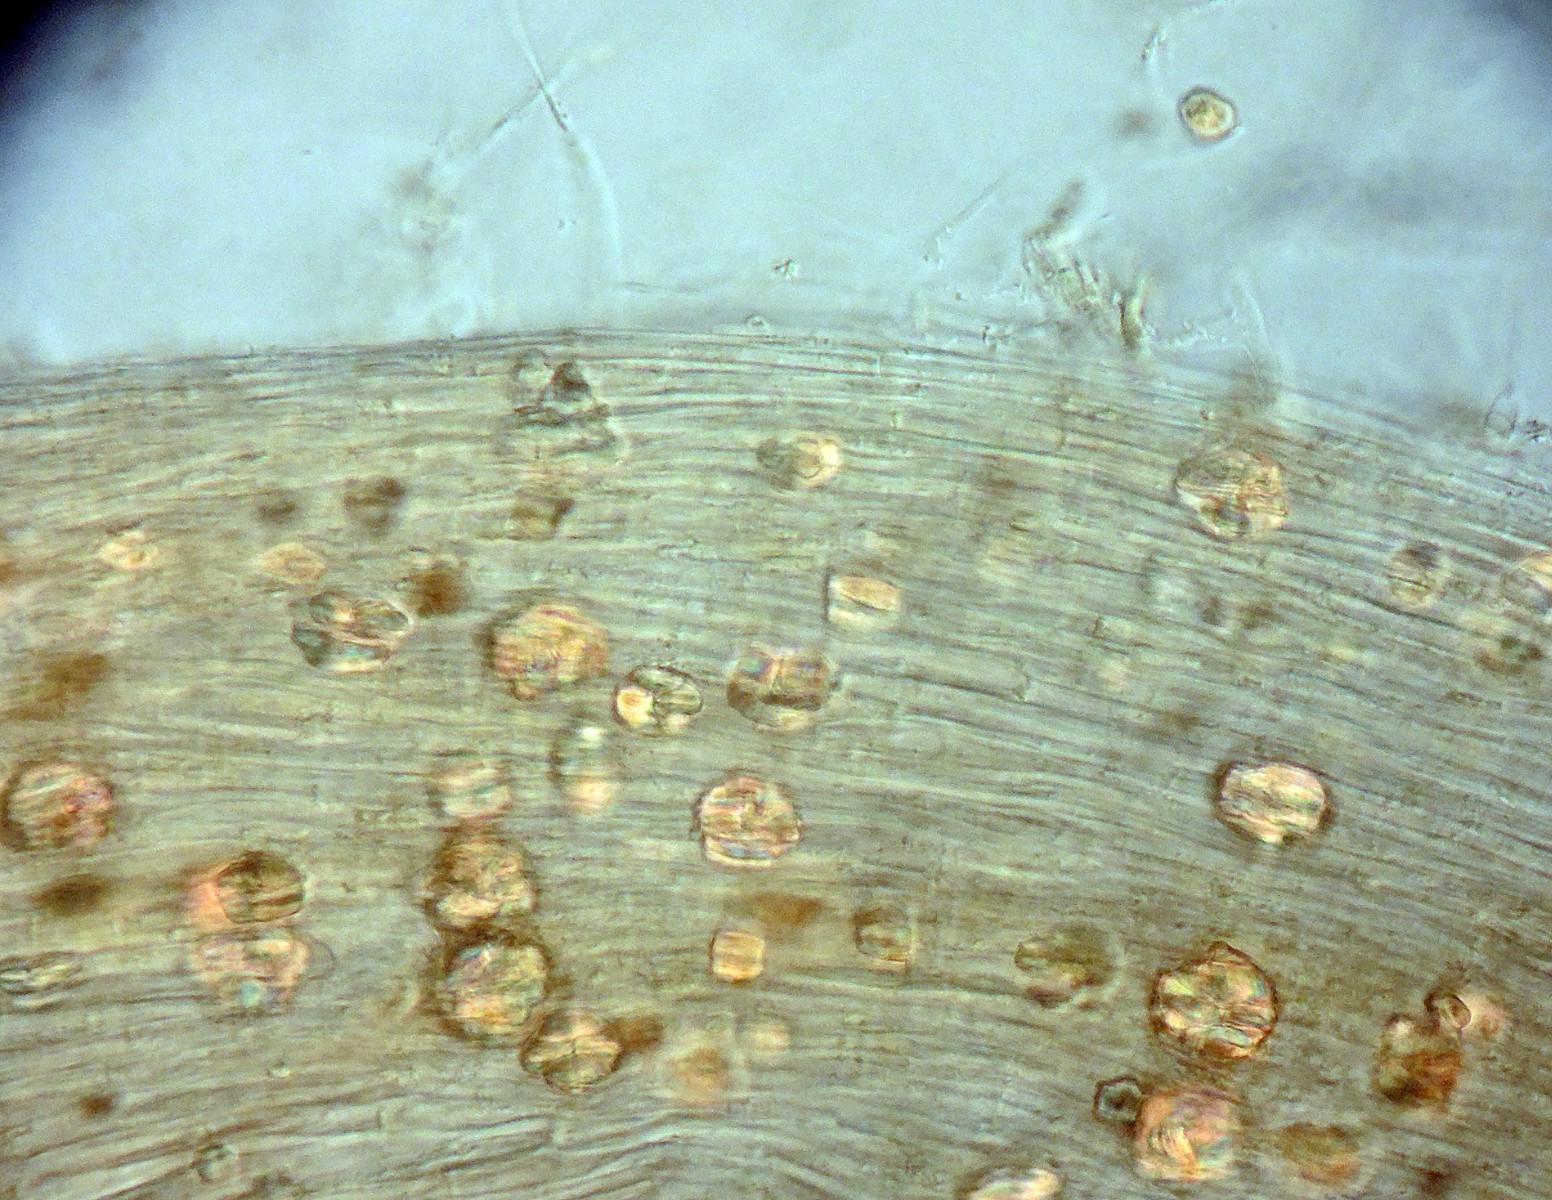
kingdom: Fungi
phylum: Basidiomycota
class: Agaricomycetes
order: Agaricales
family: Typhulaceae
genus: Typhula
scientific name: Typhula
